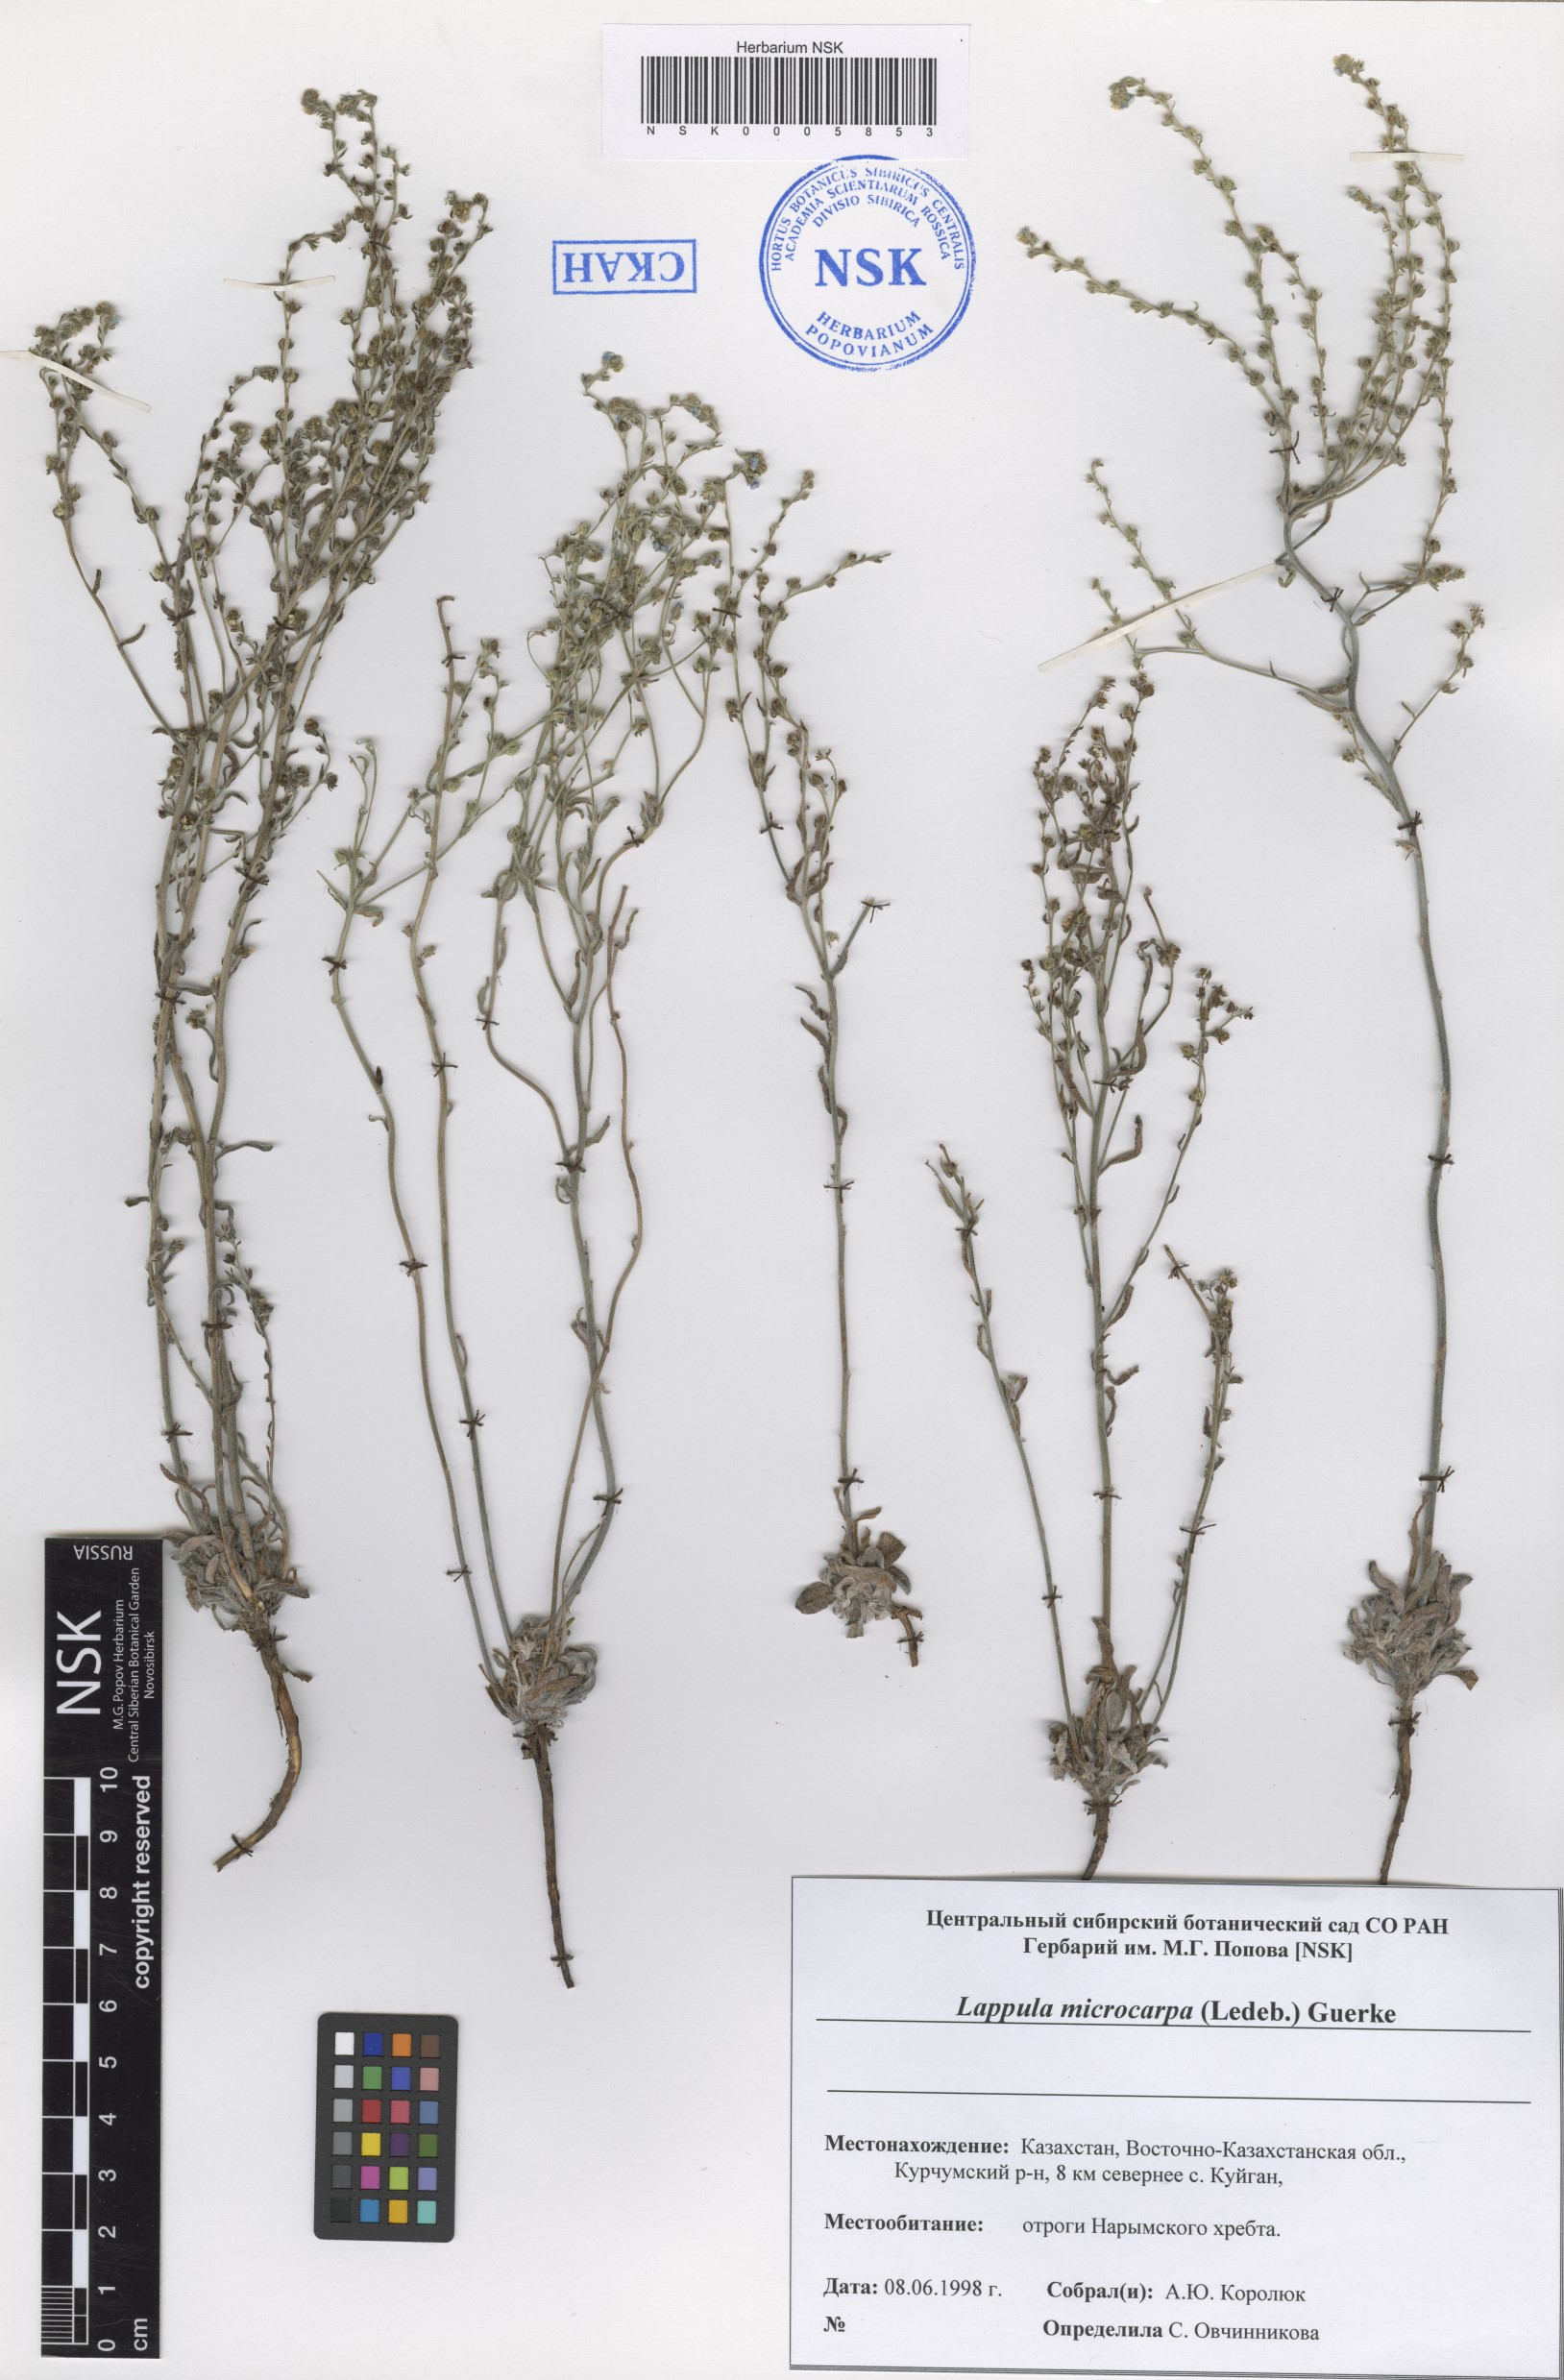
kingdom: Plantae
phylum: Tracheophyta
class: Magnoliopsida
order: Boraginales
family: Boraginaceae
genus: Lappula
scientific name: Lappula microcarpa
